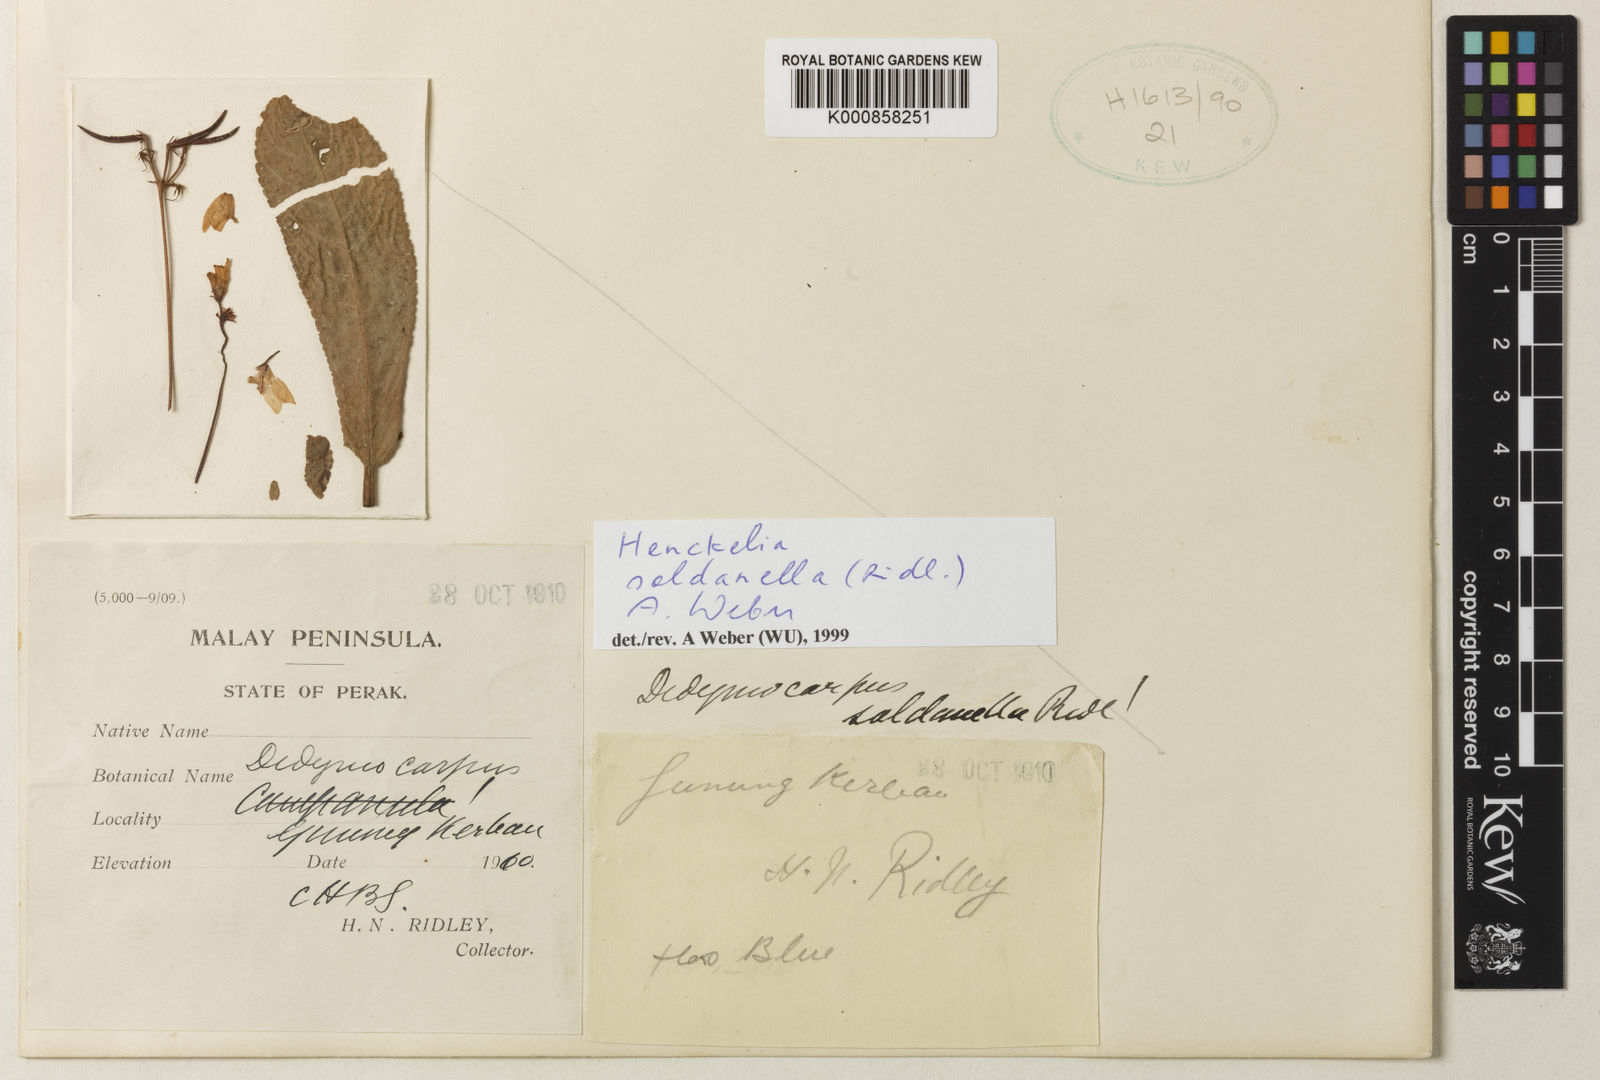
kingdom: Plantae
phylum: Tracheophyta
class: Magnoliopsida
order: Lamiales
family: Gesneriaceae
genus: Codonoboea
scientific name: Codonoboea soldanella
